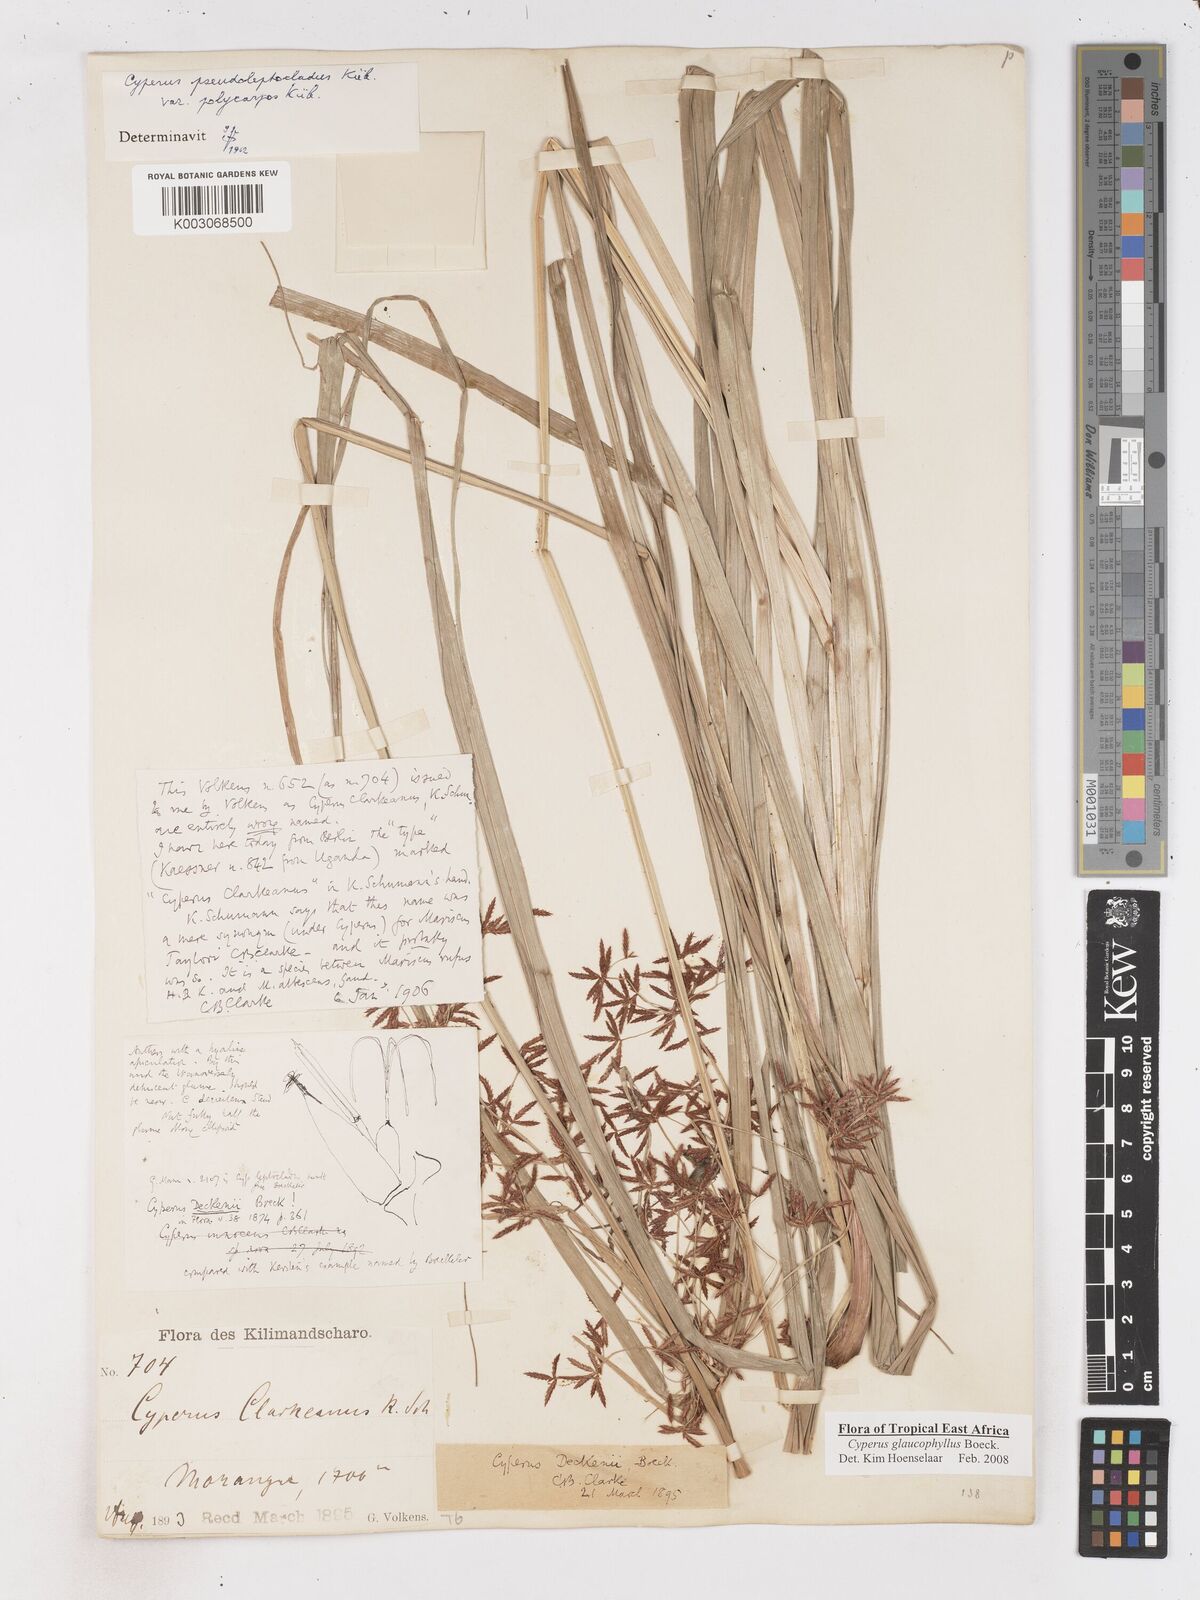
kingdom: Plantae
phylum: Tracheophyta
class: Liliopsida
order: Poales
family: Cyperaceae
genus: Cyperus
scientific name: Cyperus glaucophyllus
